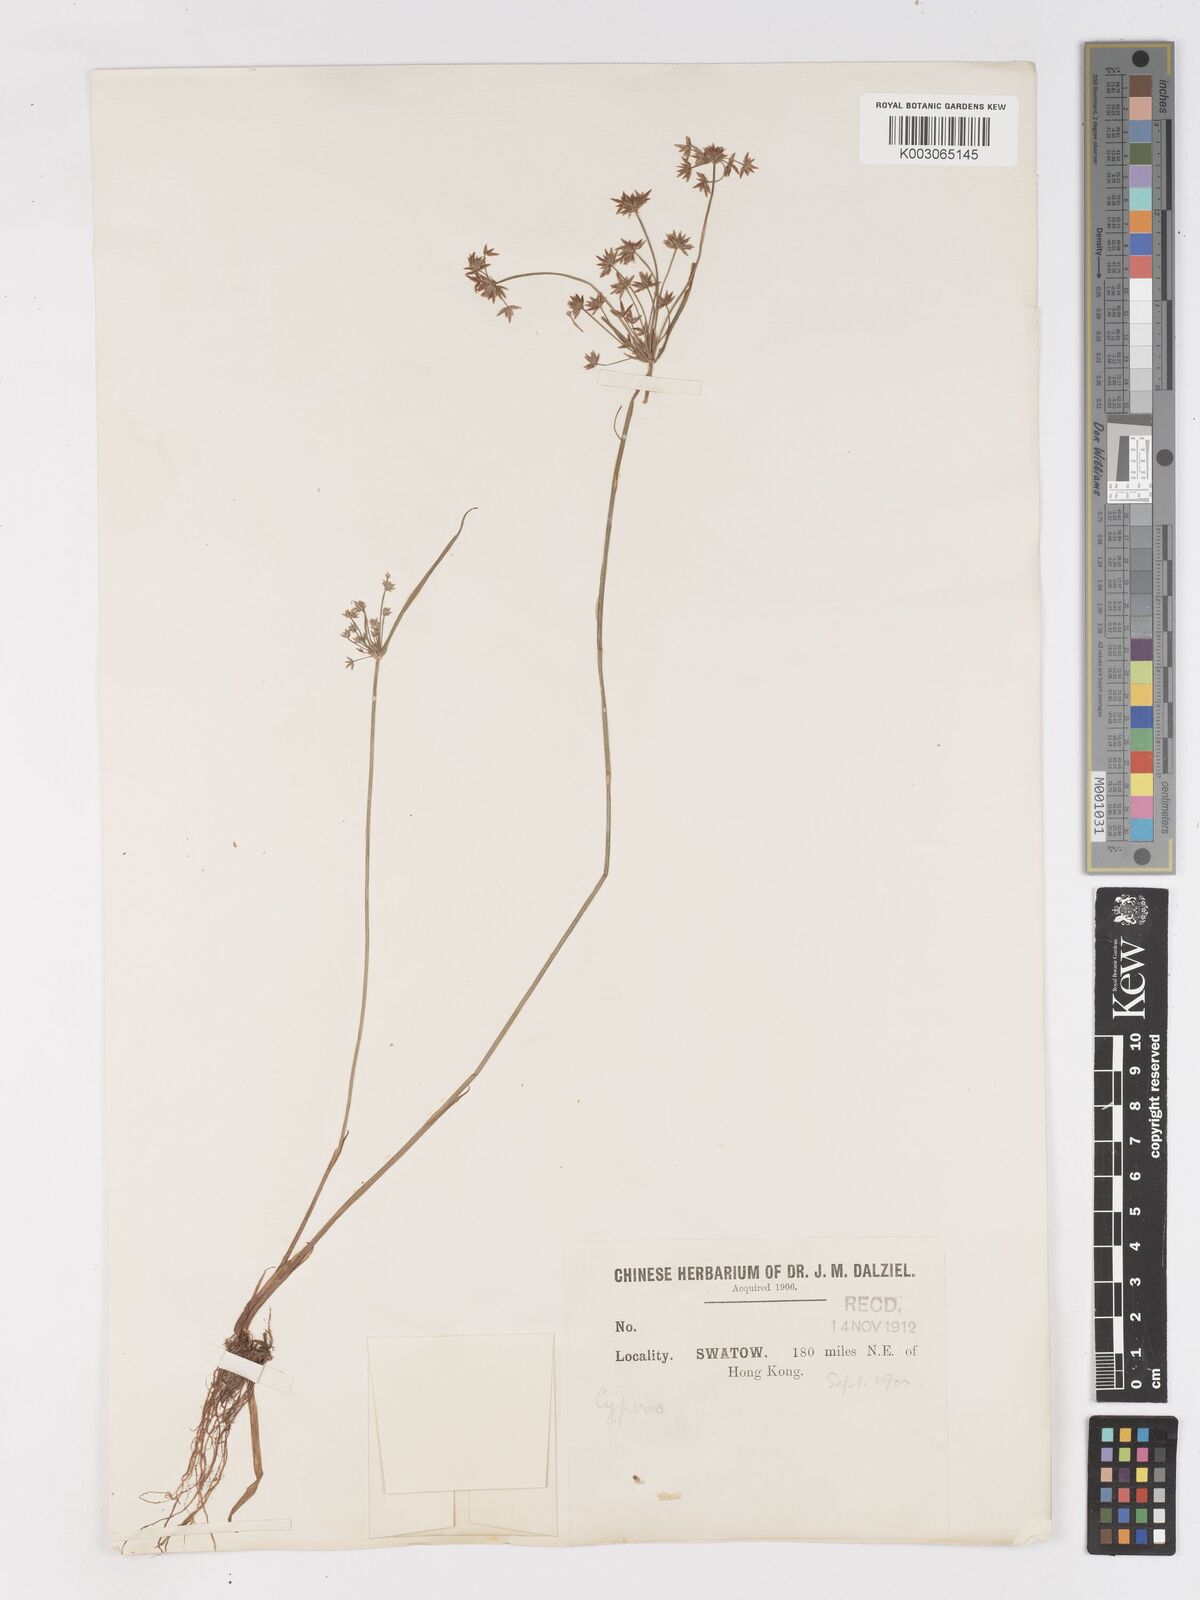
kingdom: Plantae
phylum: Tracheophyta
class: Liliopsida
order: Poales
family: Cyperaceae
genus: Cyperus
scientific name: Cyperus haspan
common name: Haspan flatsedge
